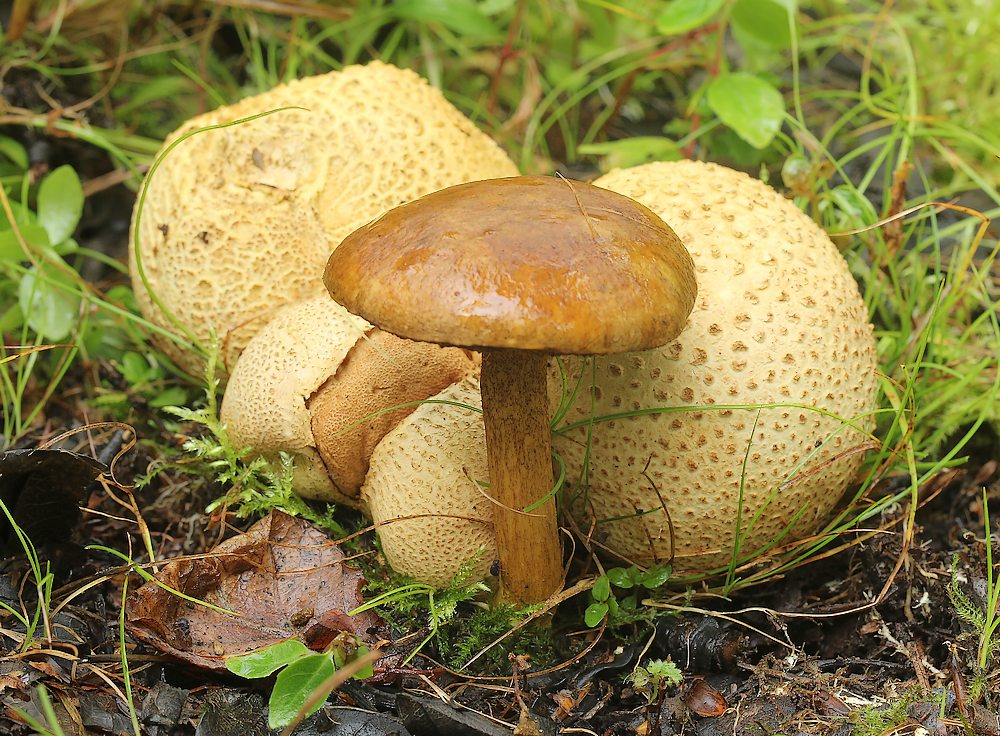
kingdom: Fungi
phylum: Basidiomycota
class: Agaricomycetes
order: Boletales
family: Boletaceae
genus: Pseudoboletus
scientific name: Pseudoboletus parasiticus
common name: snyltende rørhat
